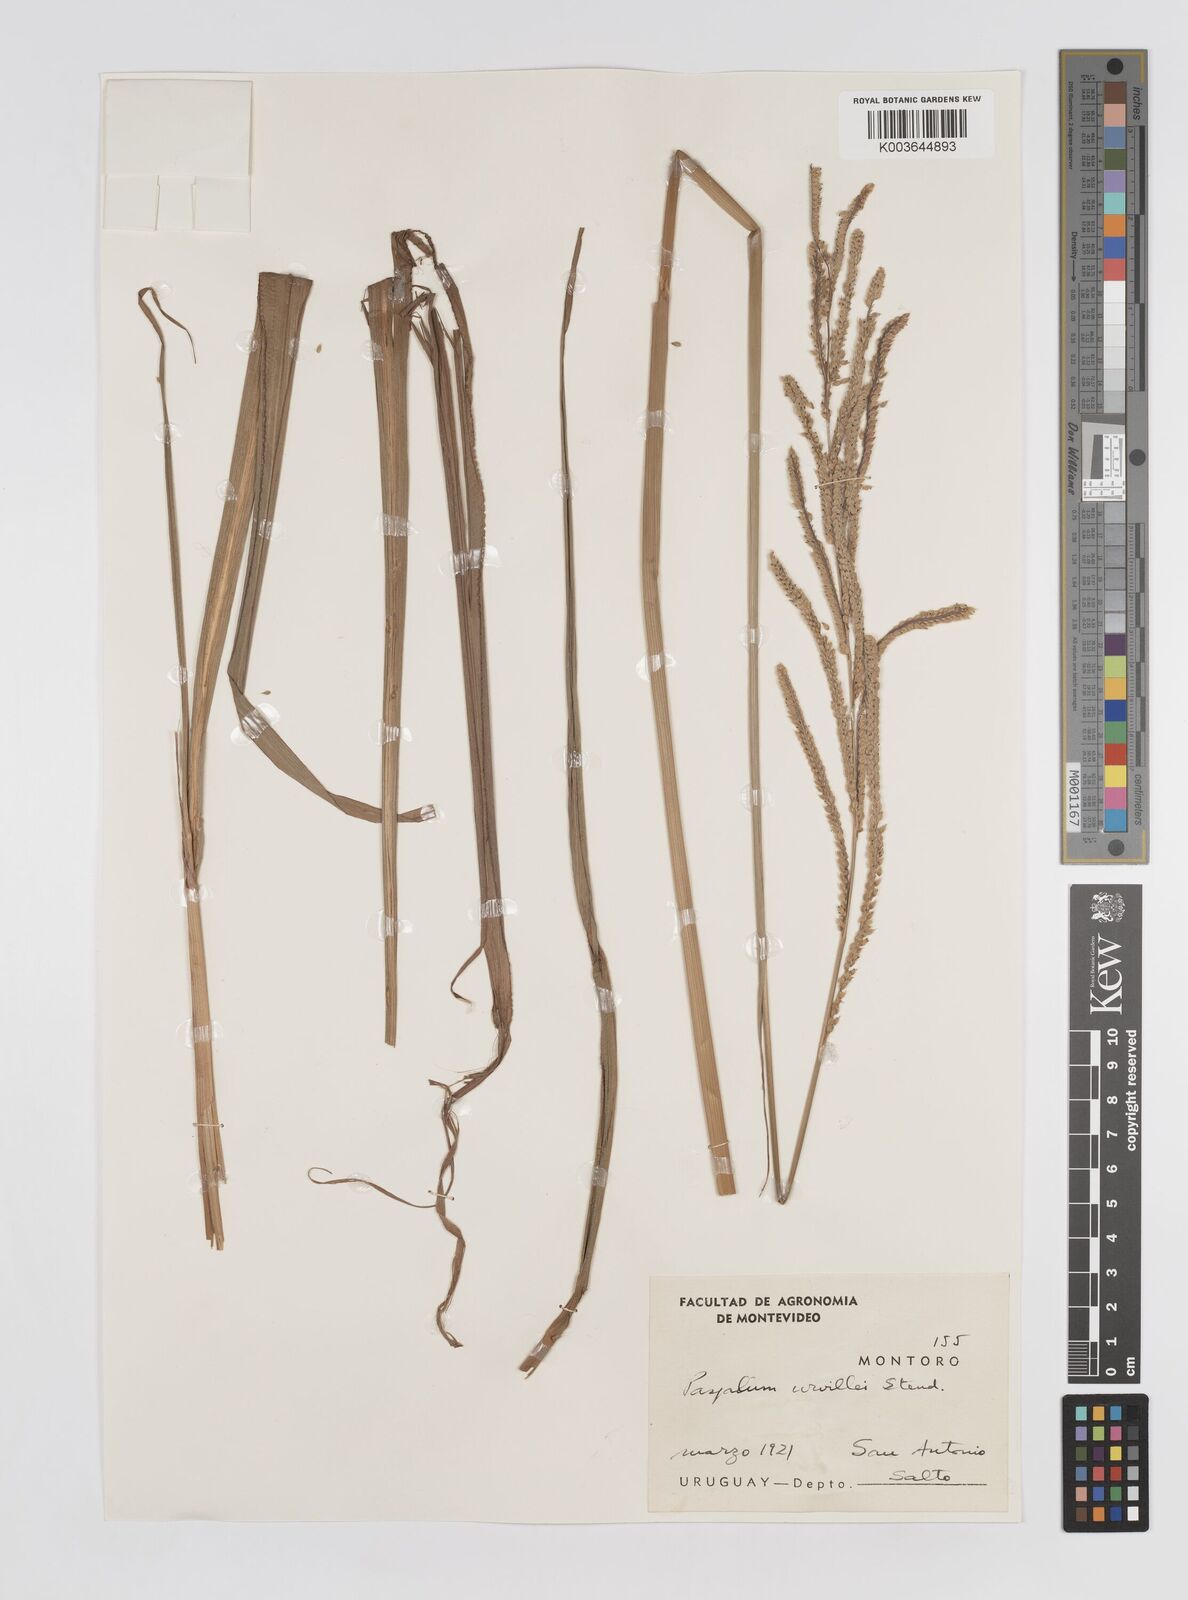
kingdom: Plantae
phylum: Tracheophyta
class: Liliopsida
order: Poales
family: Poaceae
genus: Paspalum
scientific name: Paspalum urvillei
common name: Vasey's grass
